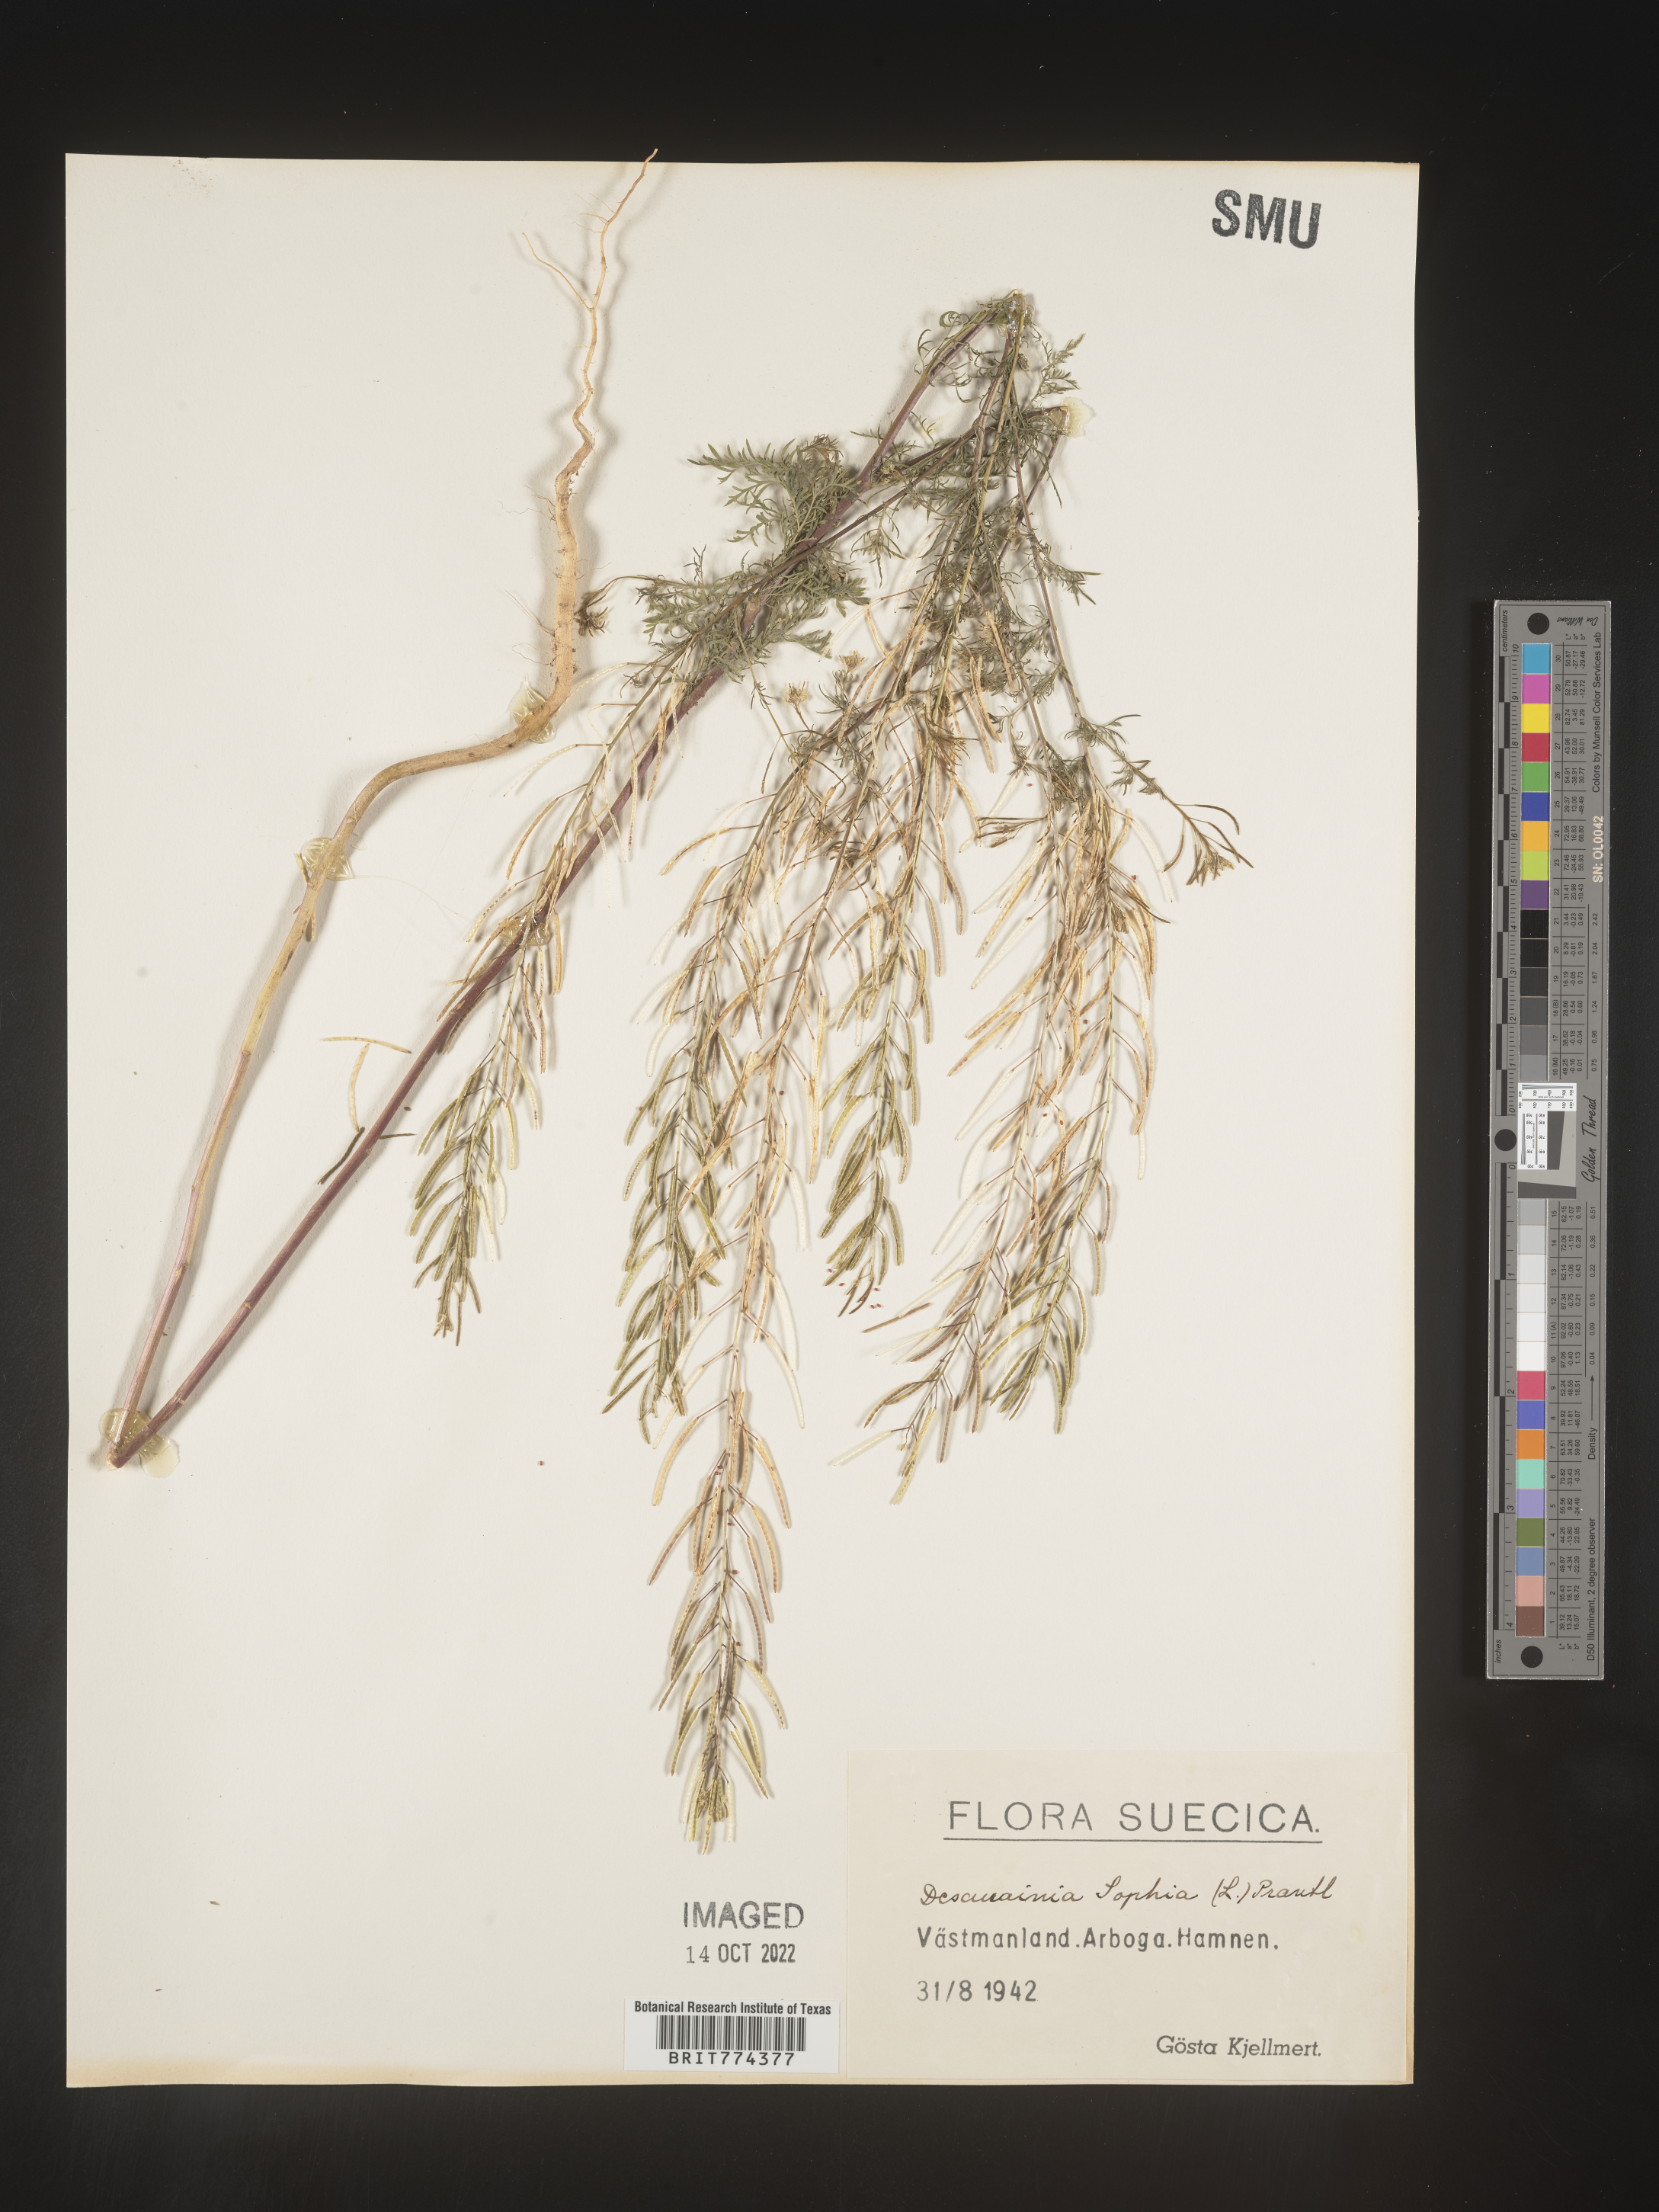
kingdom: Plantae
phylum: Tracheophyta
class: Magnoliopsida
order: Brassicales
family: Brassicaceae
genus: Descurainia
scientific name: Descurainia
